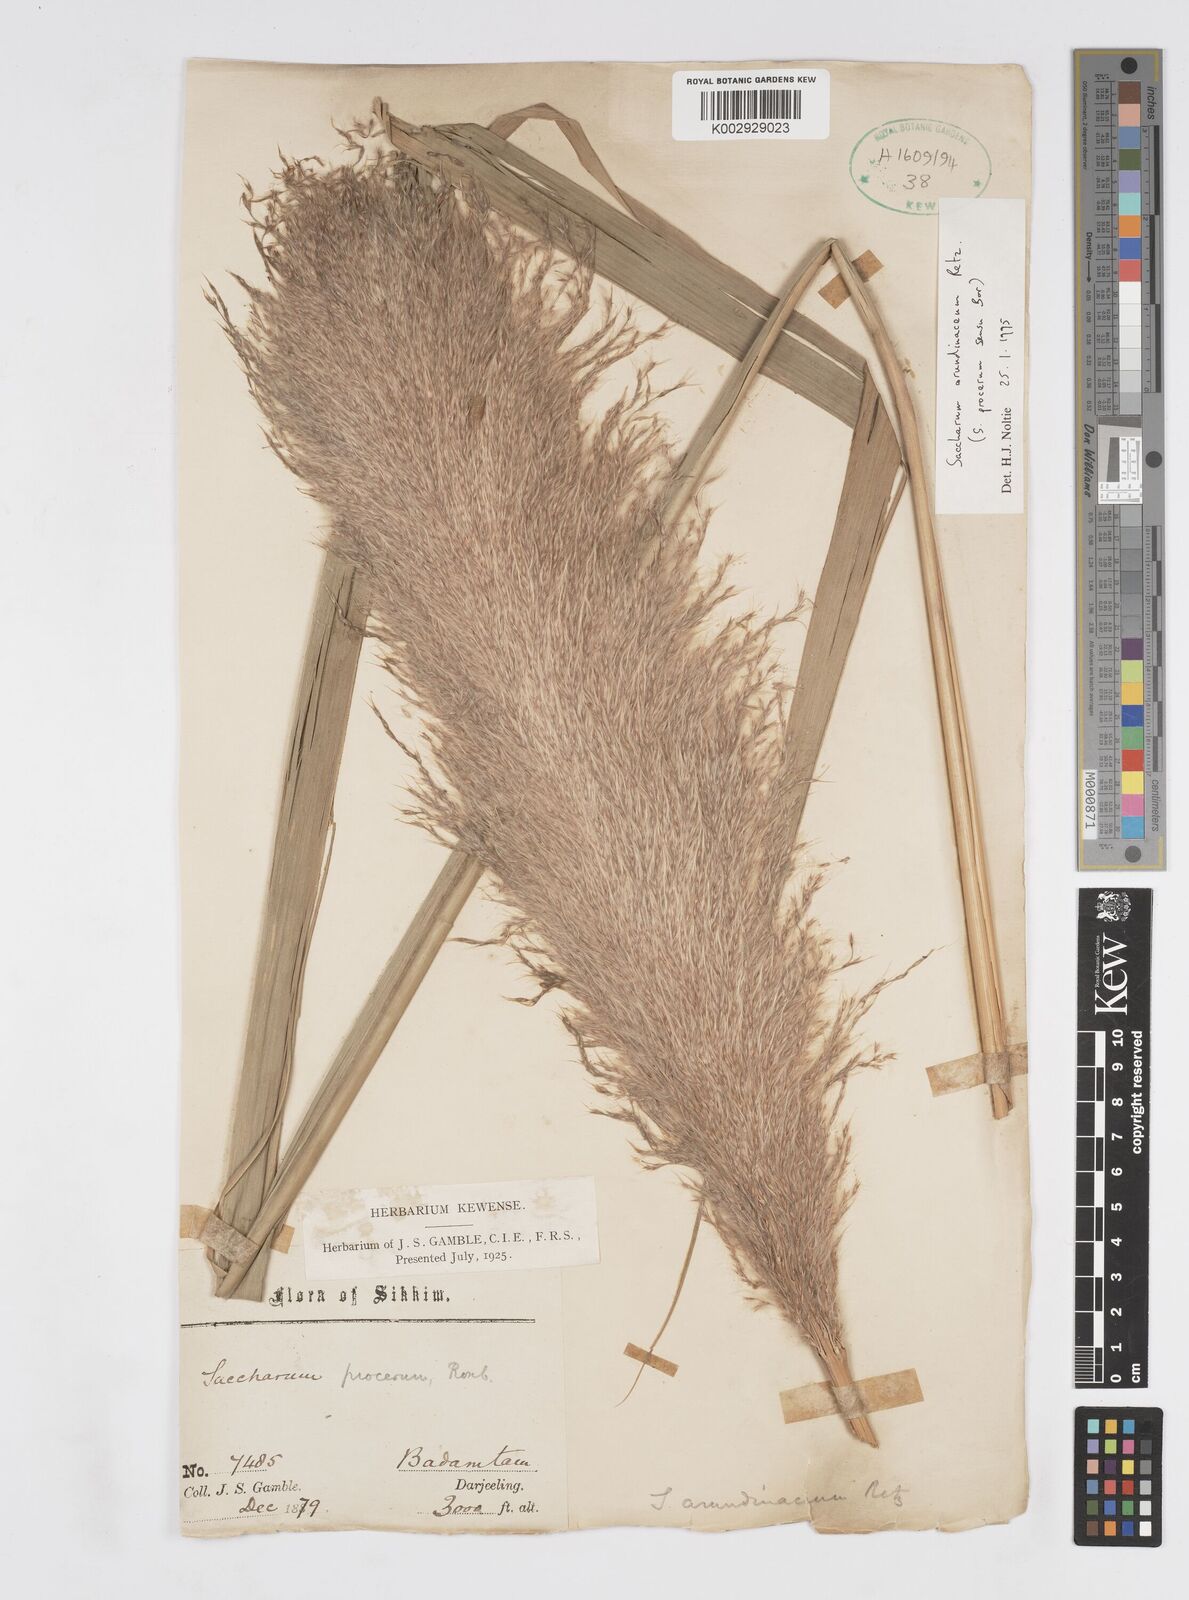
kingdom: Plantae
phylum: Tracheophyta
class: Liliopsida
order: Poales
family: Poaceae
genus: Tripidium
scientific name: Tripidium arundinaceum
